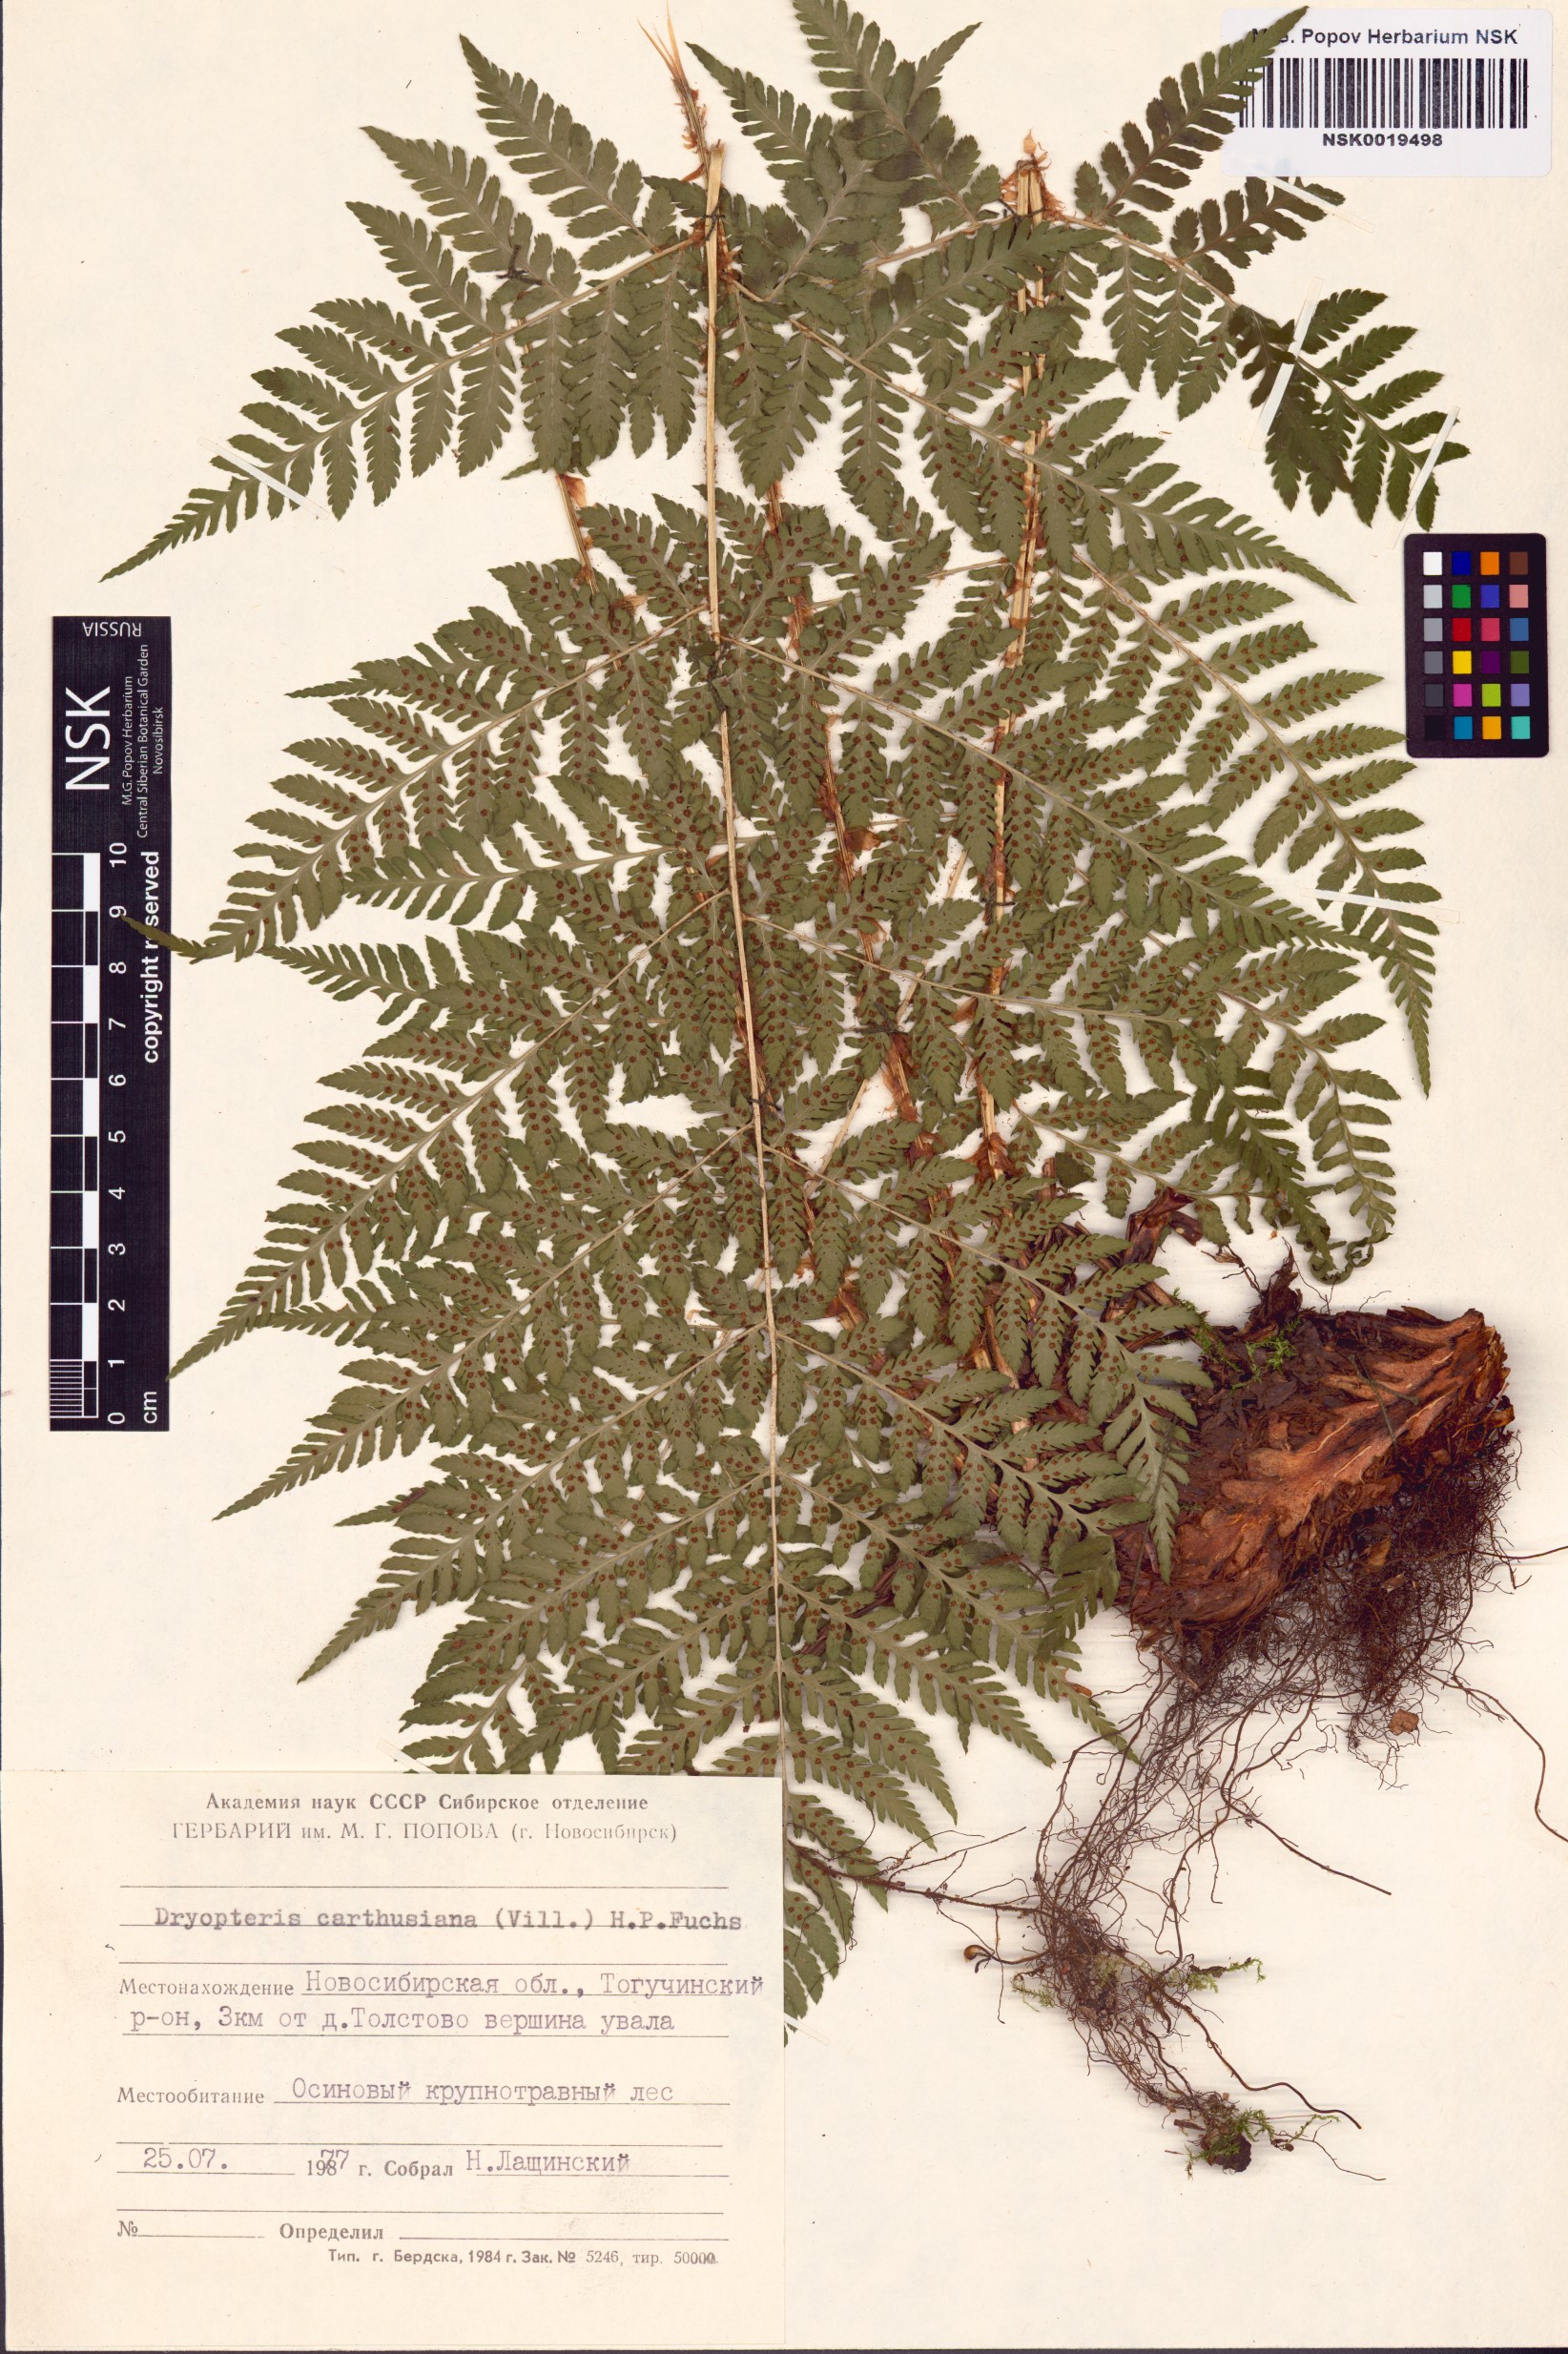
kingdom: Plantae
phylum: Tracheophyta
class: Polypodiopsida
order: Polypodiales
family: Dryopteridaceae
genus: Dryopteris
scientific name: Dryopteris carthusiana
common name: Narrow buckler-fern
